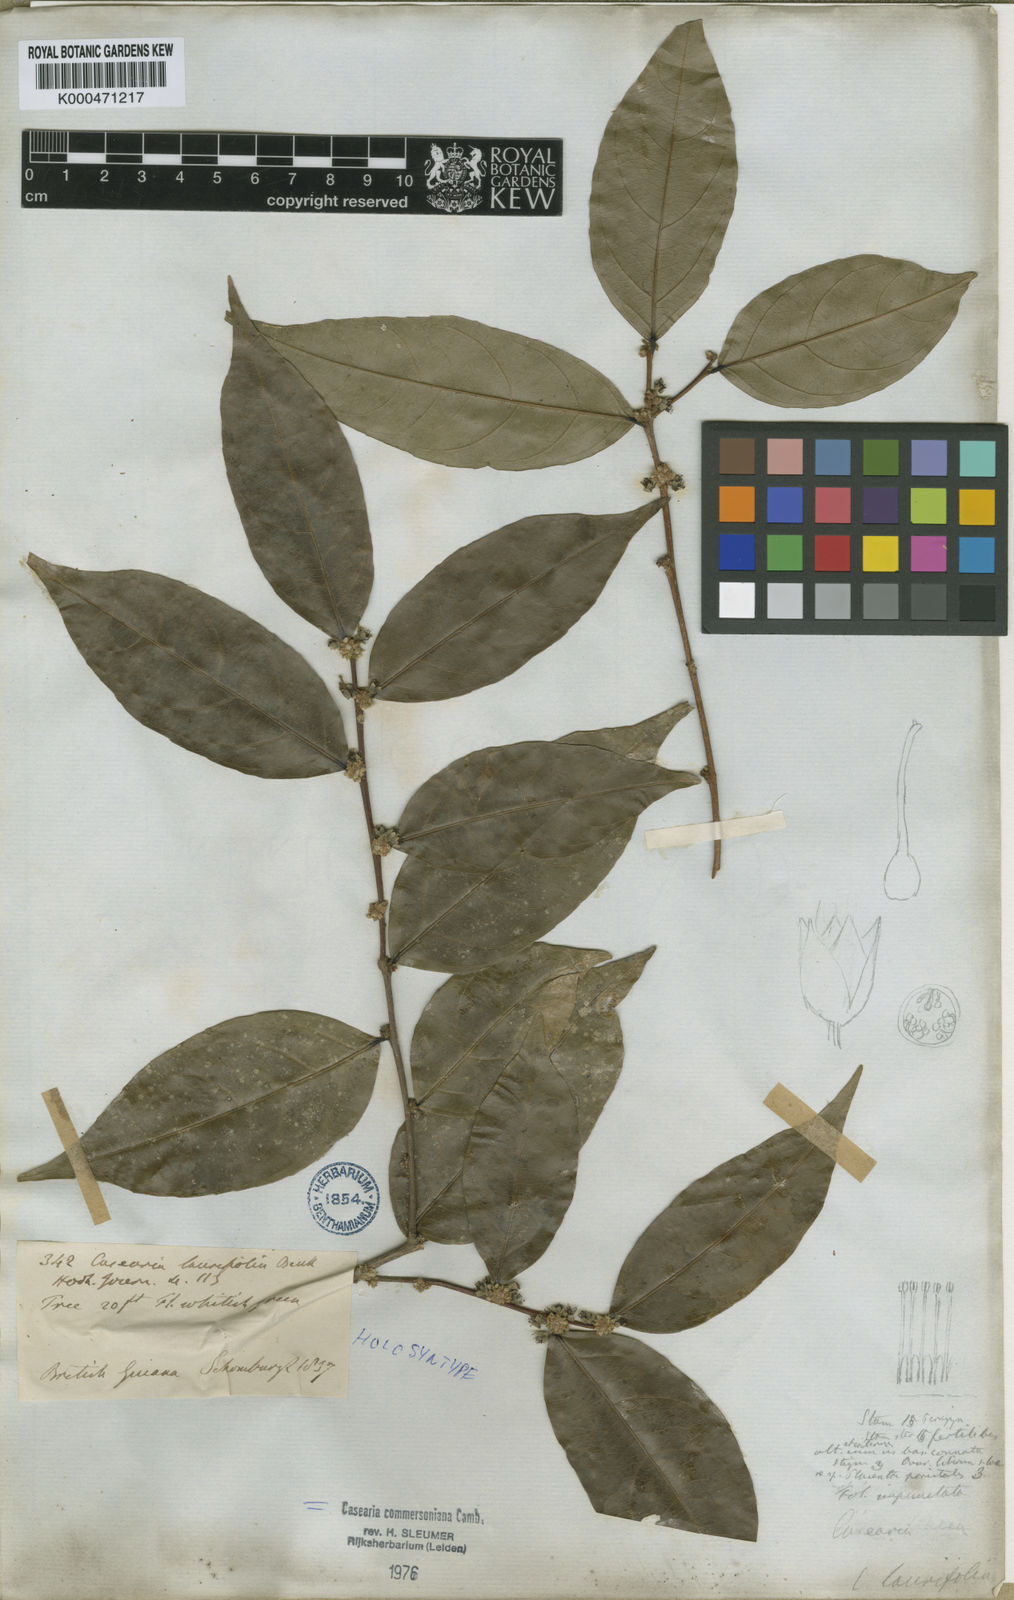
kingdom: Plantae
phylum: Tracheophyta
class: Magnoliopsida
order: Malpighiales
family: Salicaceae
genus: Piparea
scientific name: Piparea dentata
